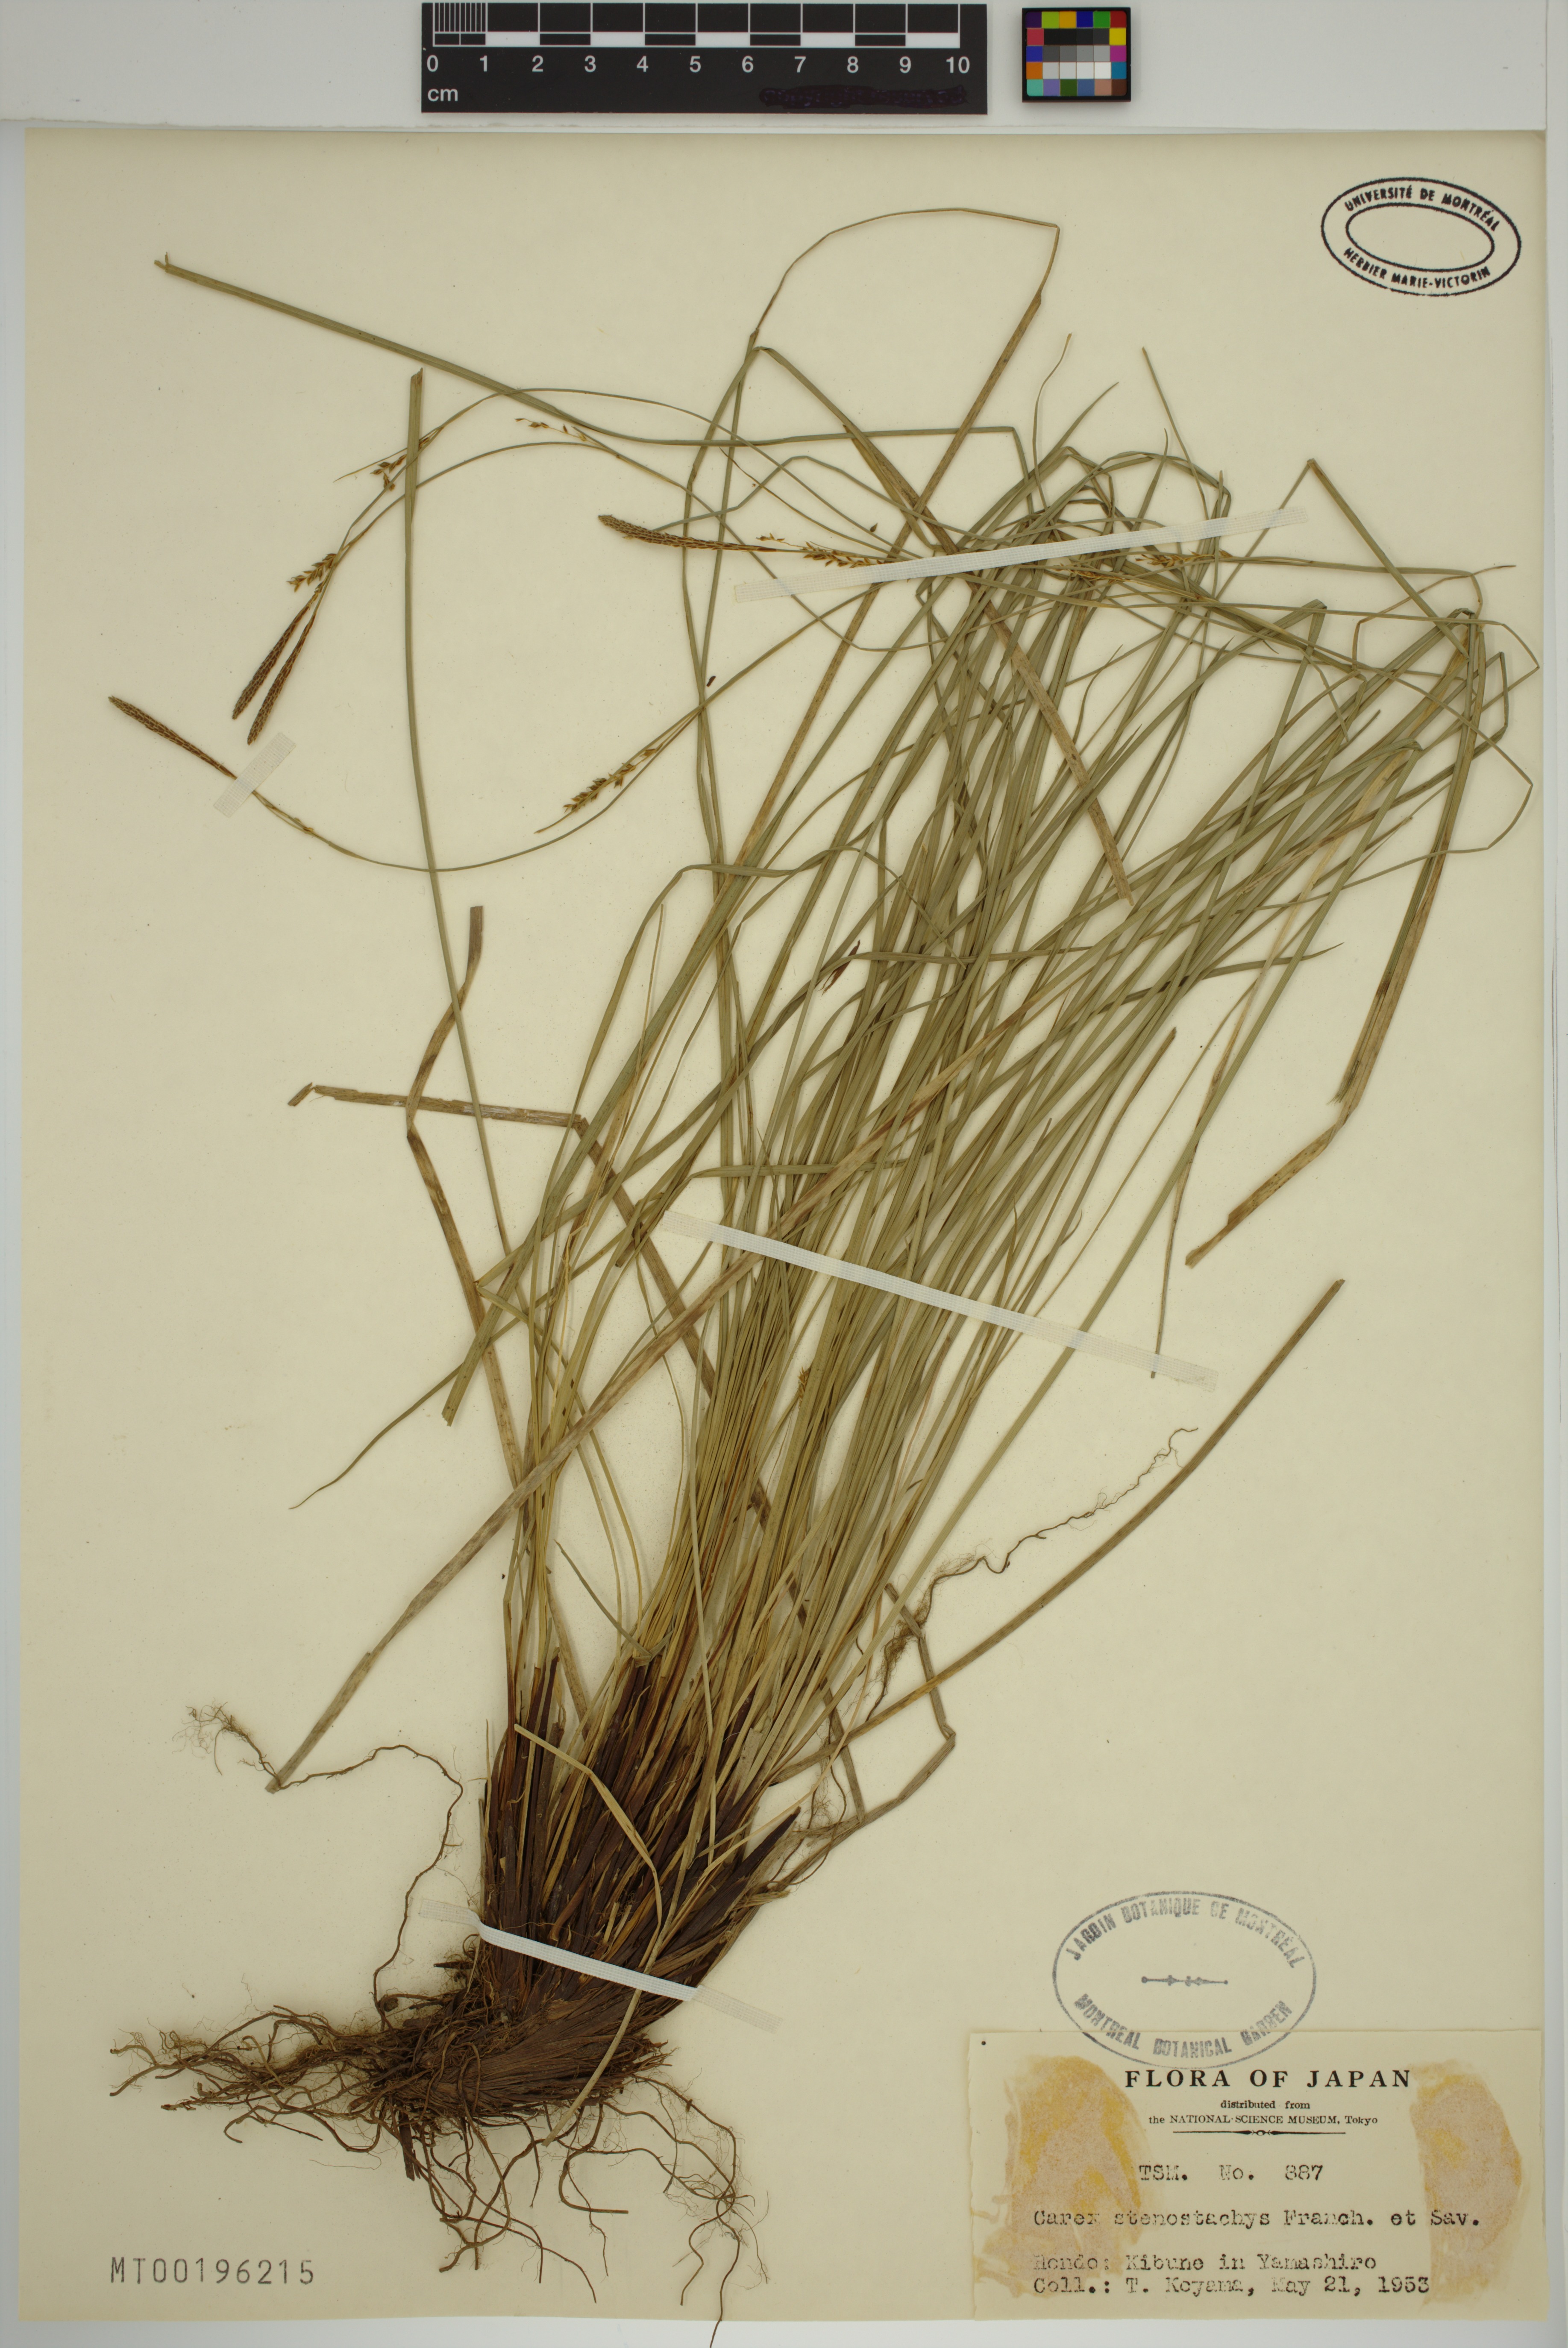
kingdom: Plantae
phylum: Tracheophyta
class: Liliopsida
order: Poales
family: Cyperaceae
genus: Carex
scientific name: Carex stenostachys
